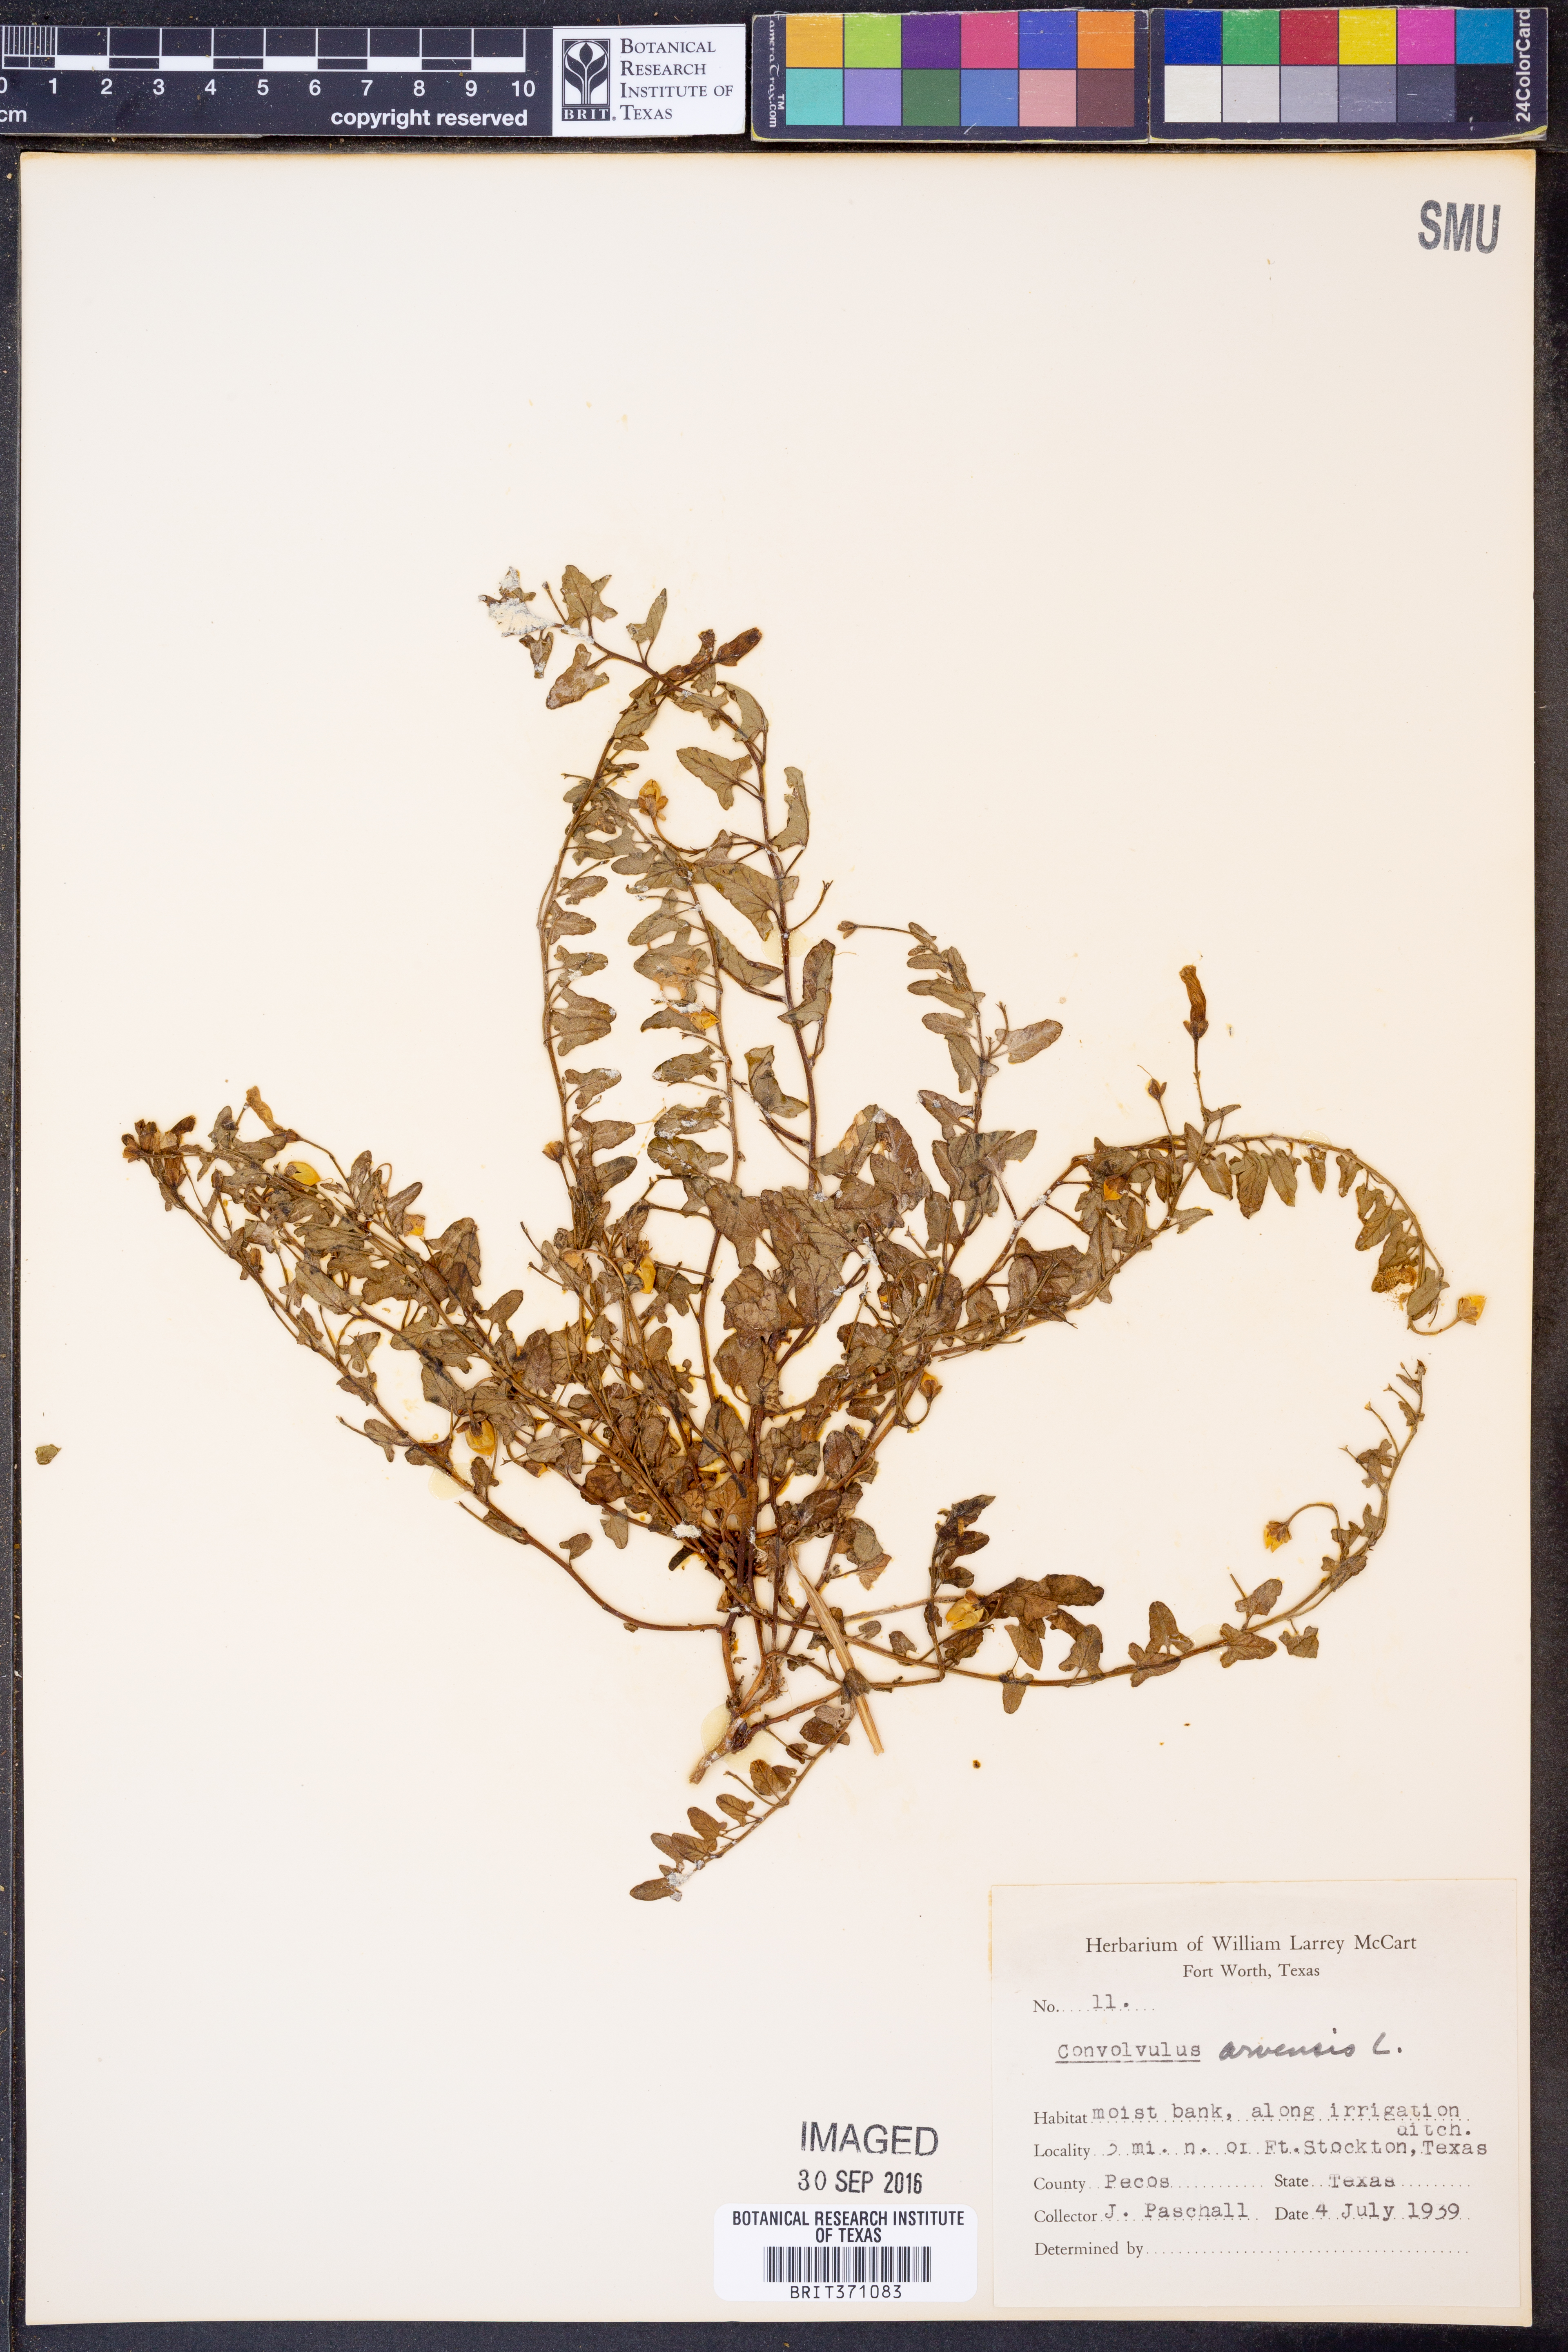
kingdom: Plantae
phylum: Tracheophyta
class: Magnoliopsida
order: Solanales
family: Convolvulaceae
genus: Convolvulus
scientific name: Convolvulus arvensis
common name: Field bindweed
